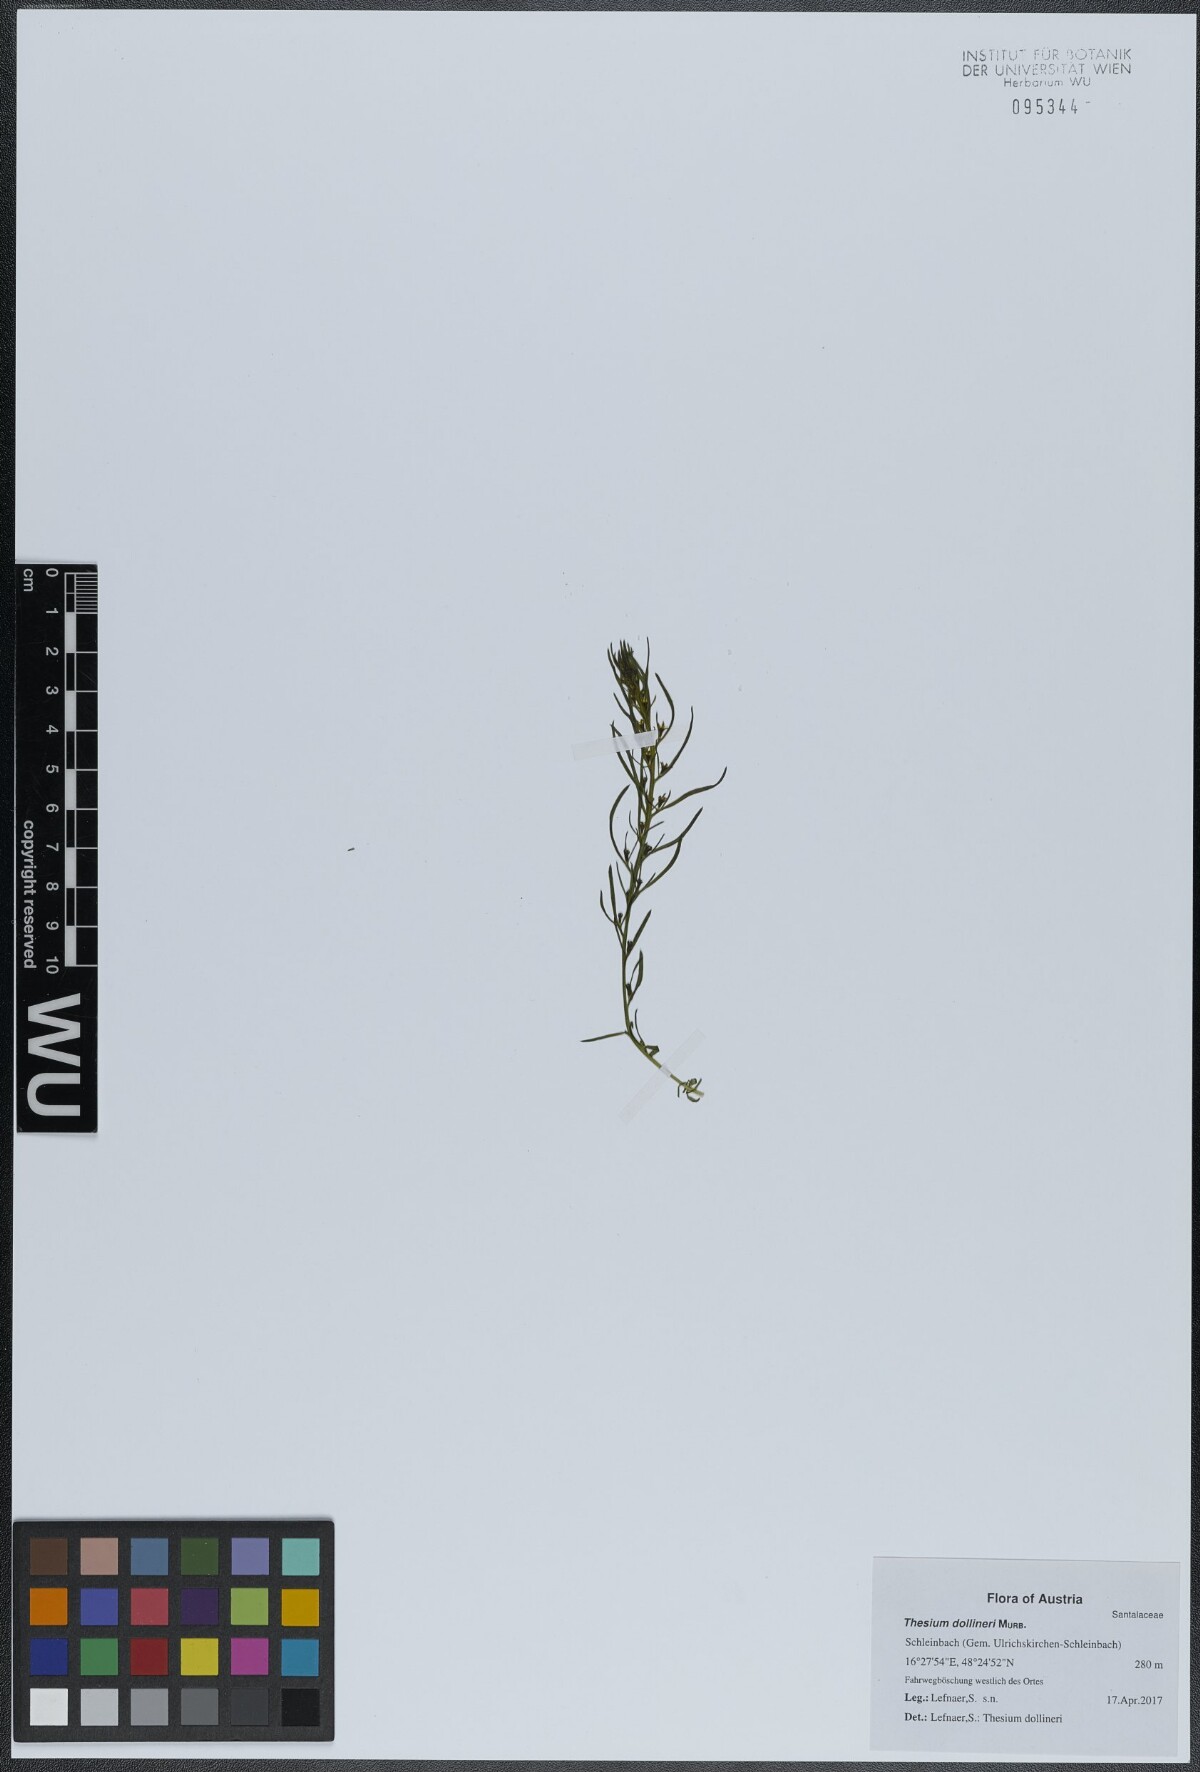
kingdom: Plantae
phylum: Tracheophyta
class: Magnoliopsida
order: Santalales
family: Thesiaceae
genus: Thesium
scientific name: Thesium dollineri
